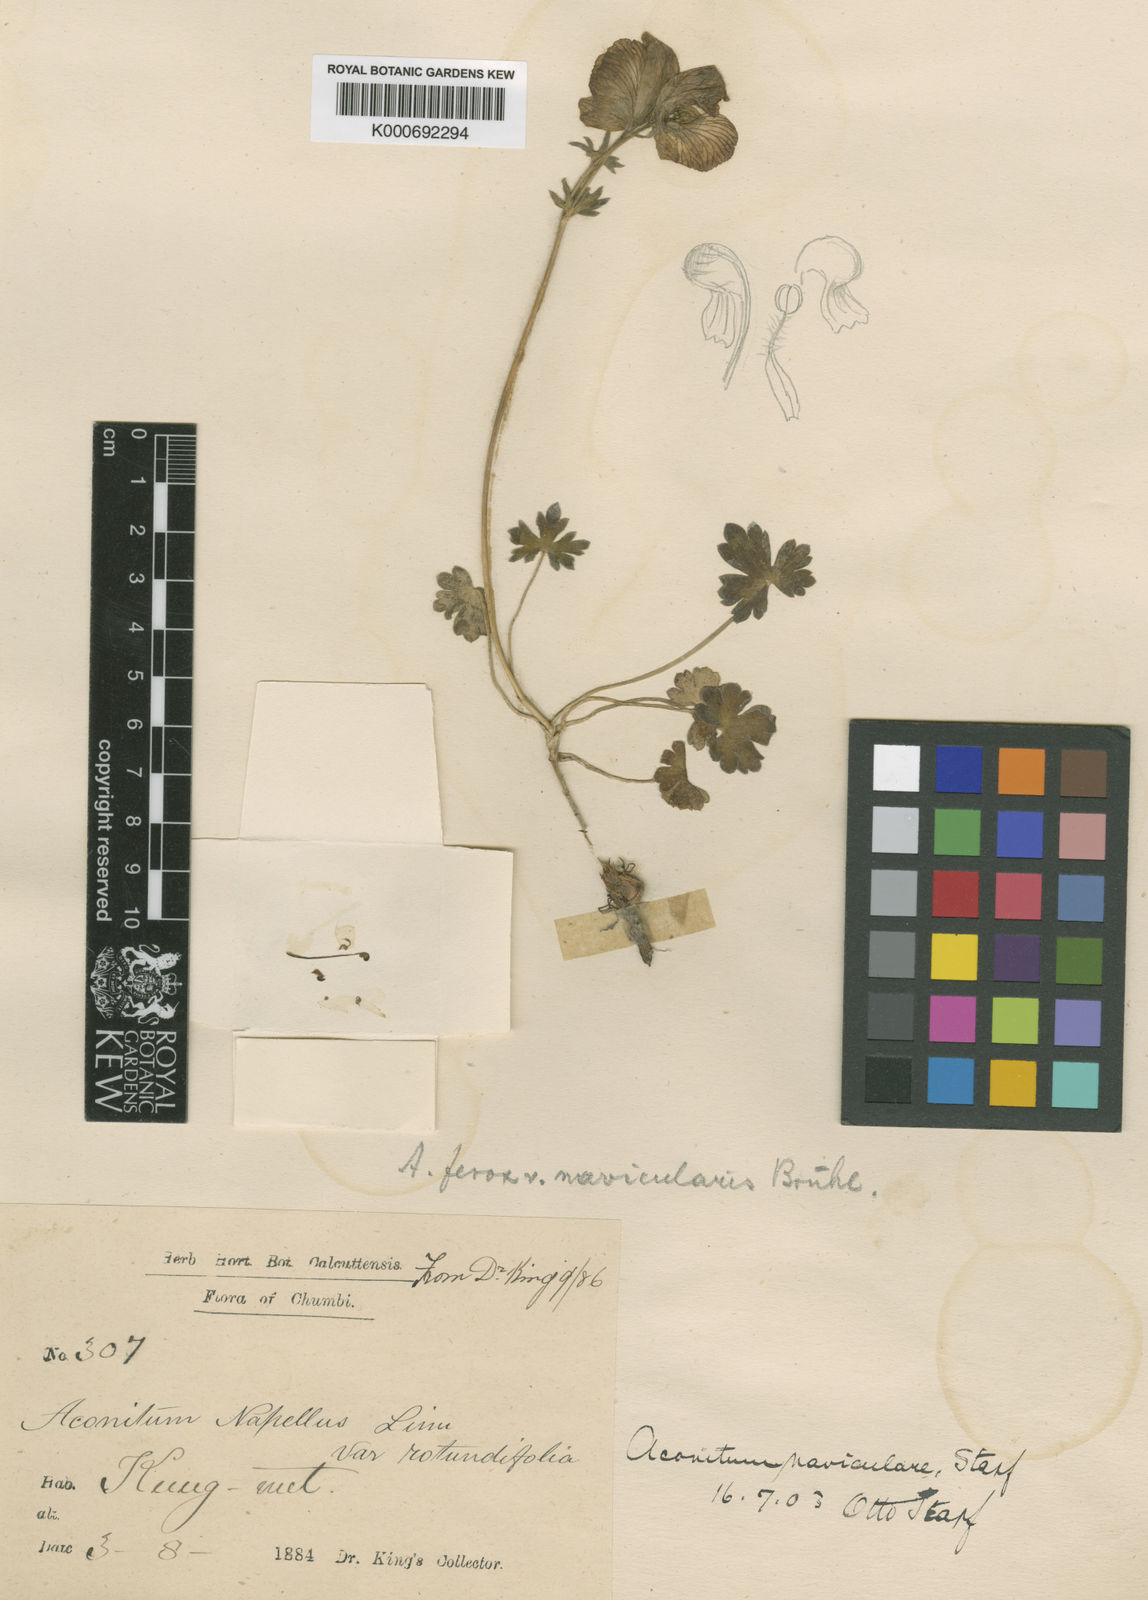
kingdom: Plantae
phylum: Tracheophyta
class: Magnoliopsida
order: Ranunculales
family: Ranunculaceae
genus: Aconitum
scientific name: Aconitum naviculare
